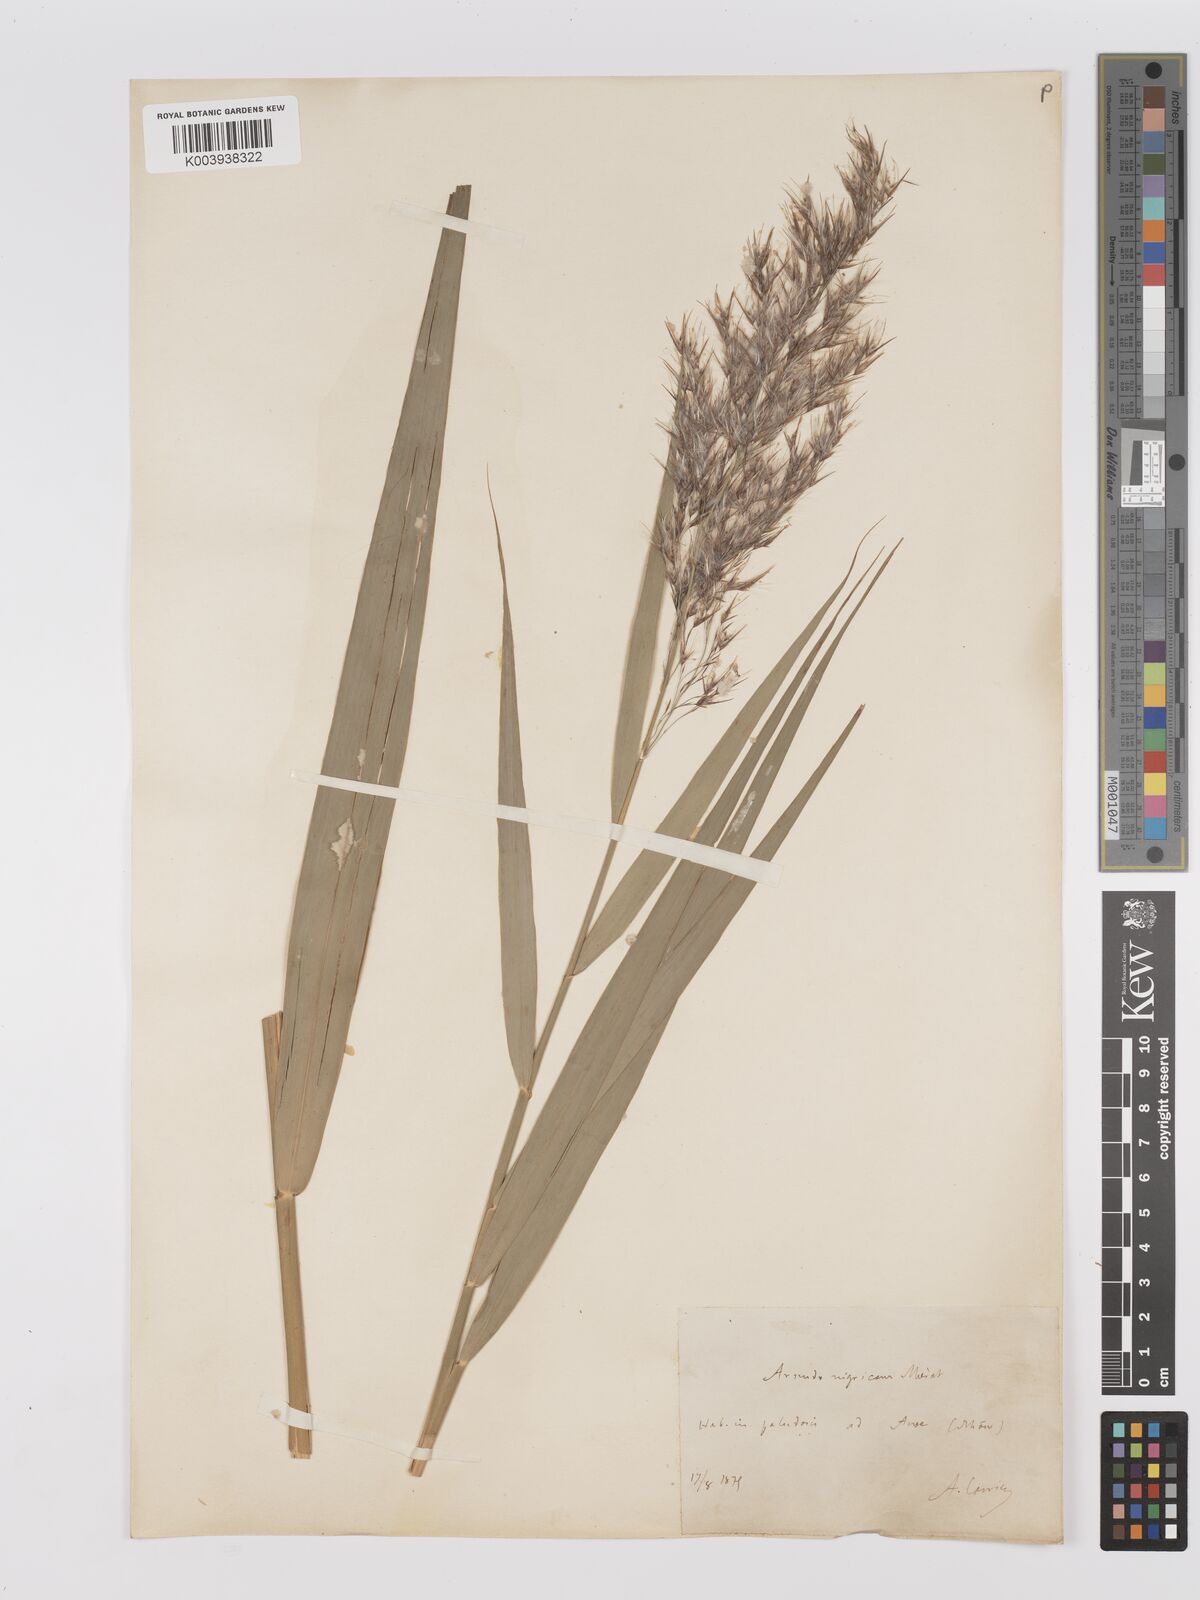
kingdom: Plantae
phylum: Tracheophyta
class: Liliopsida
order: Poales
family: Poaceae
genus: Phragmites
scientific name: Phragmites australis
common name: Common reed
